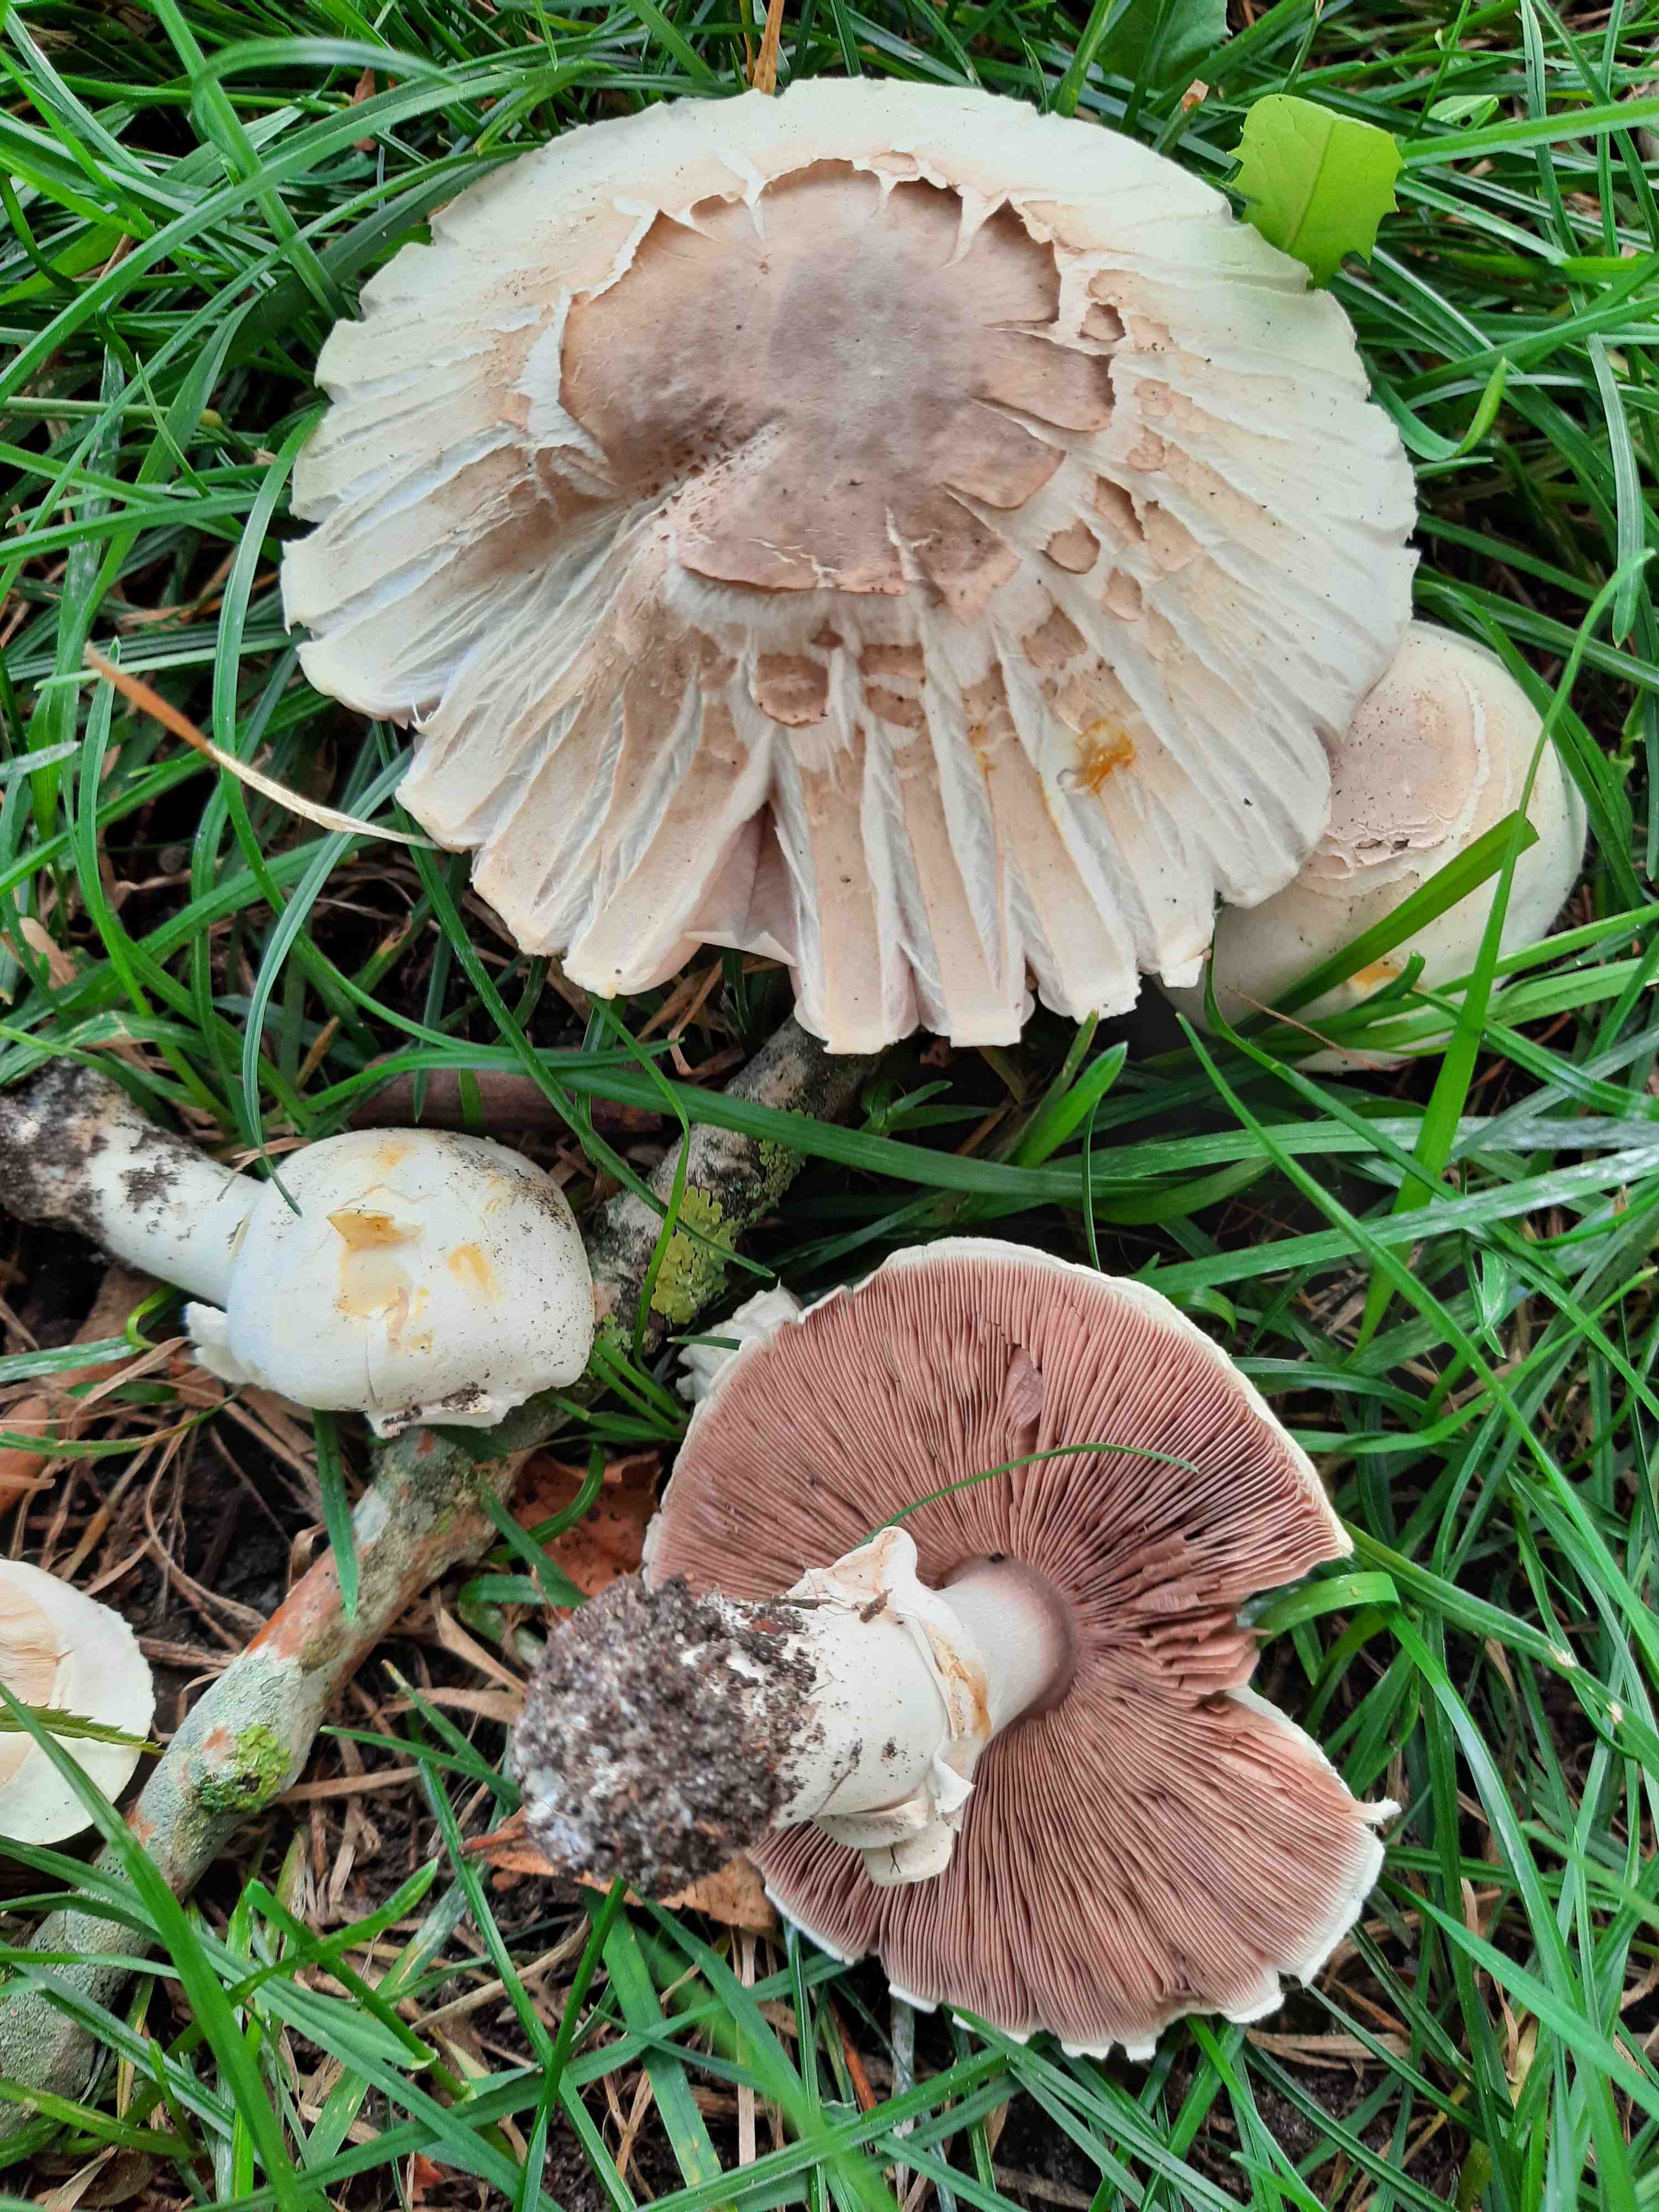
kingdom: Fungi
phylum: Basidiomycota
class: Agaricomycetes
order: Agaricales
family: Agaricaceae
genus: Agaricus
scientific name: Agaricus xanthodermus
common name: karbol-champignon
